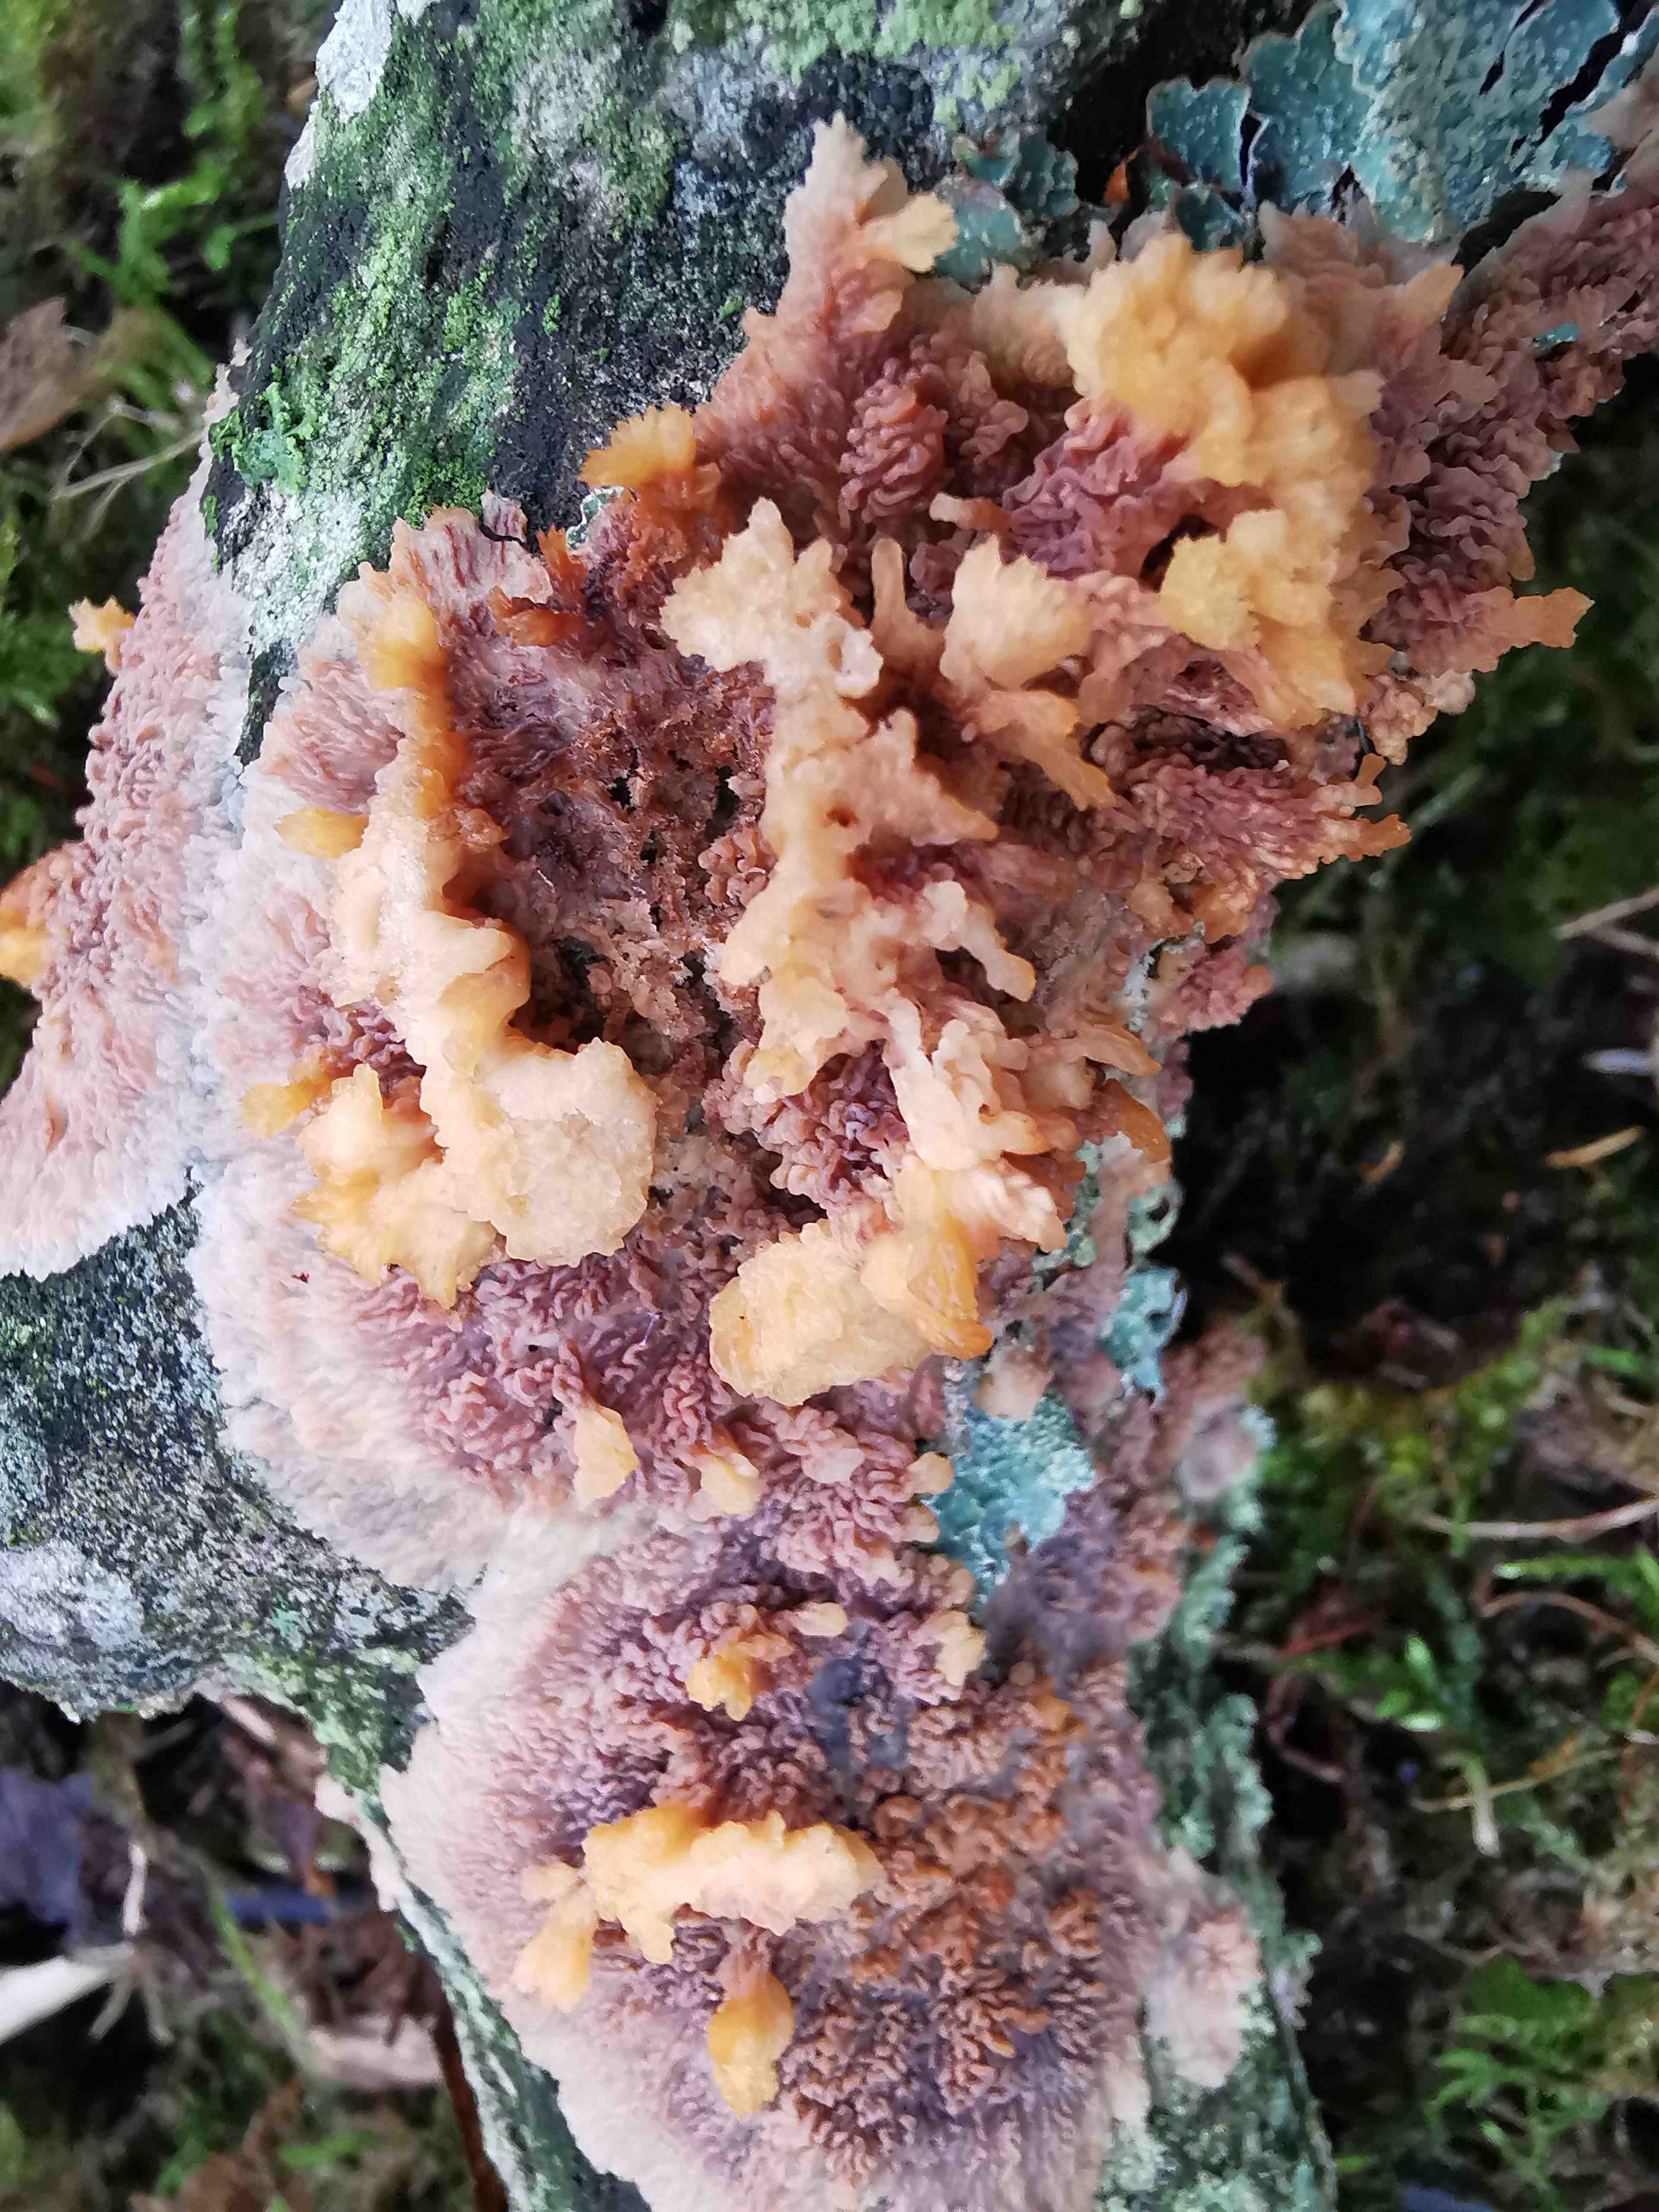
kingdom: Fungi
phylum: Basidiomycota
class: Agaricomycetes
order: Polyporales
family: Meruliaceae
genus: Phlebia
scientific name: Phlebia radiata
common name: stråle-åresvamp
